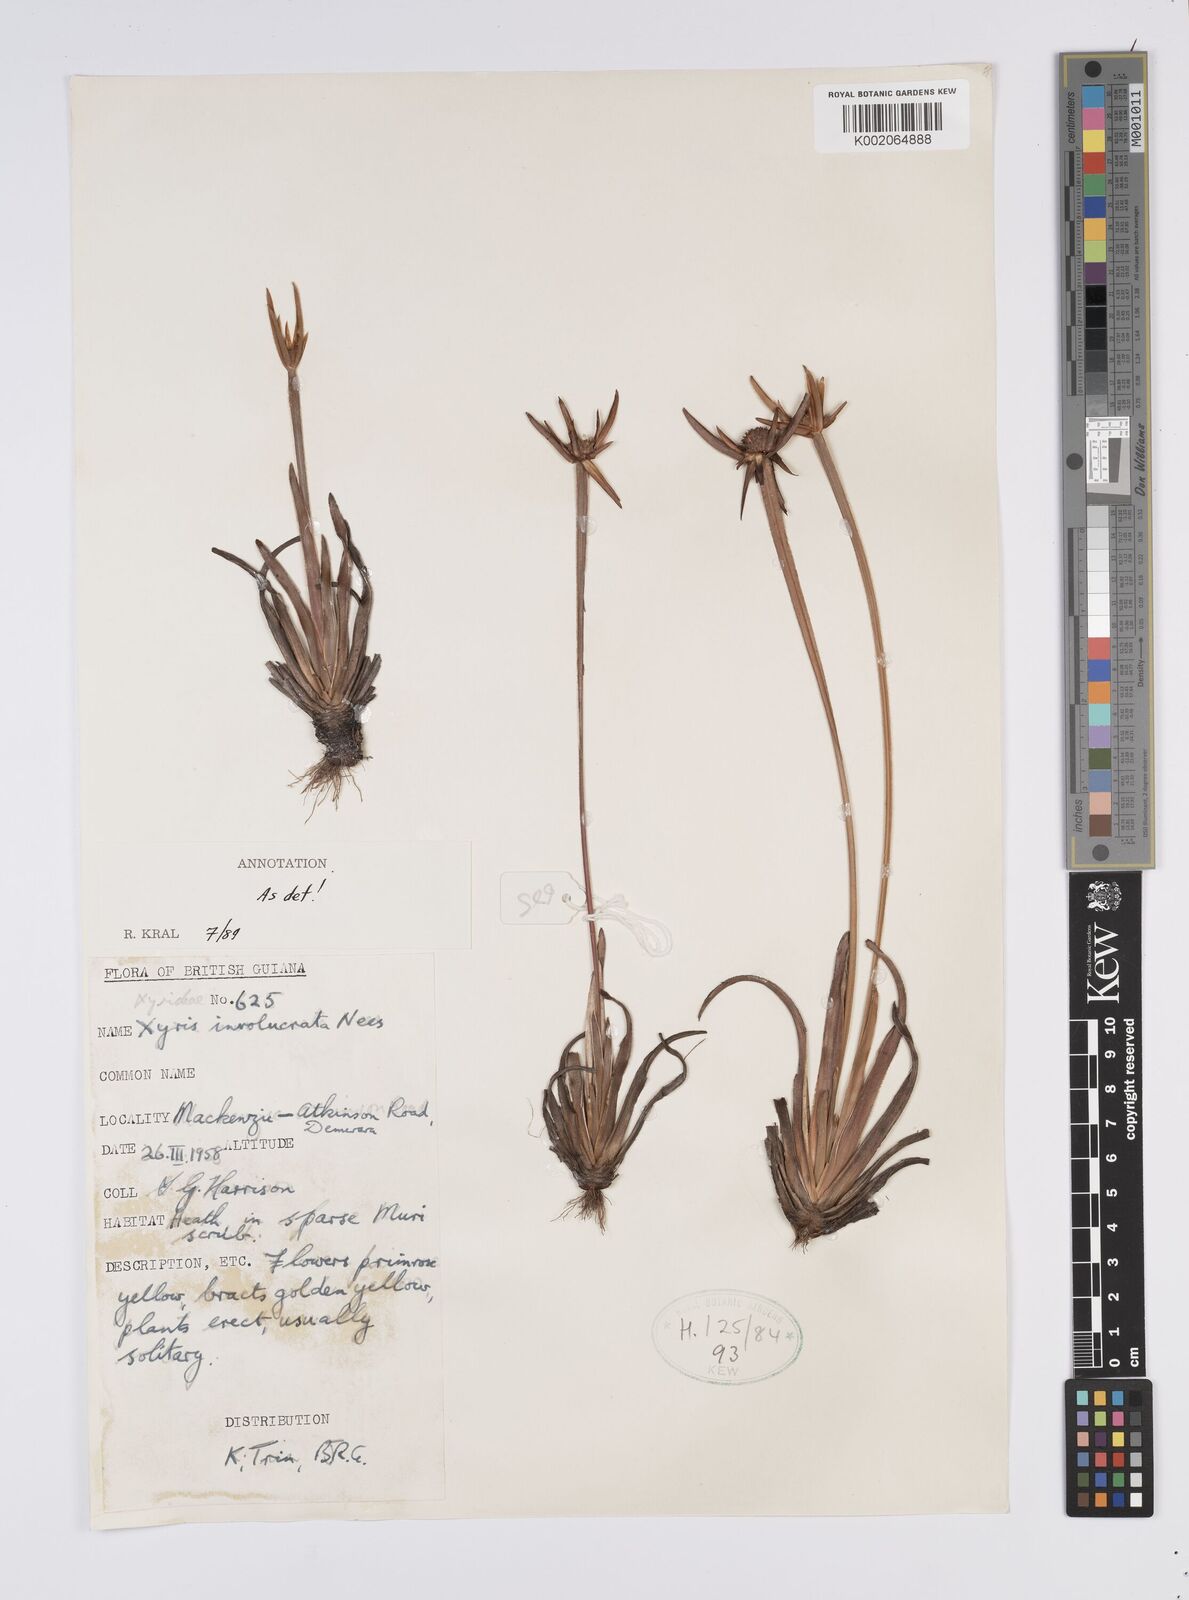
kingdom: Plantae
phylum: Tracheophyta
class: Liliopsida
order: Poales
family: Xyridaceae
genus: Xyris
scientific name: Xyris involucrata
